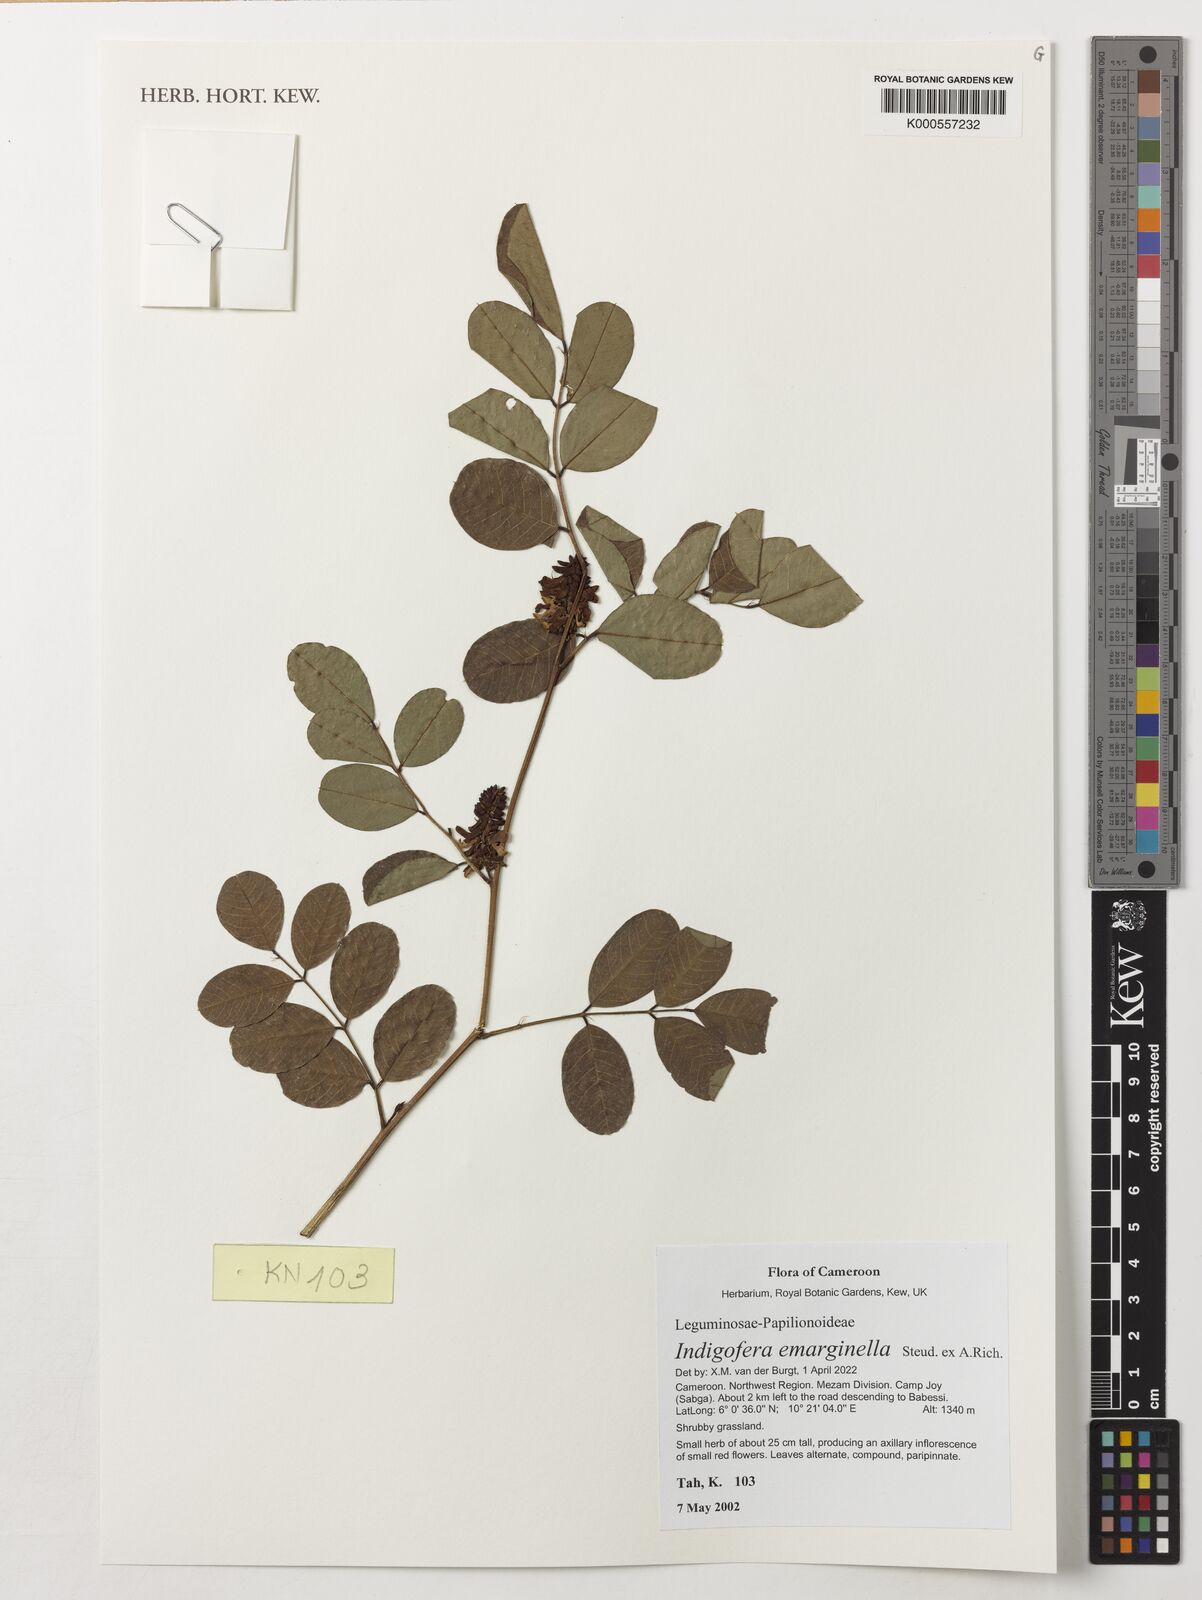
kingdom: Plantae
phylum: Tracheophyta
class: Magnoliopsida
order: Fabales
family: Fabaceae
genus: Indigofera
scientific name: Indigofera emarginella
